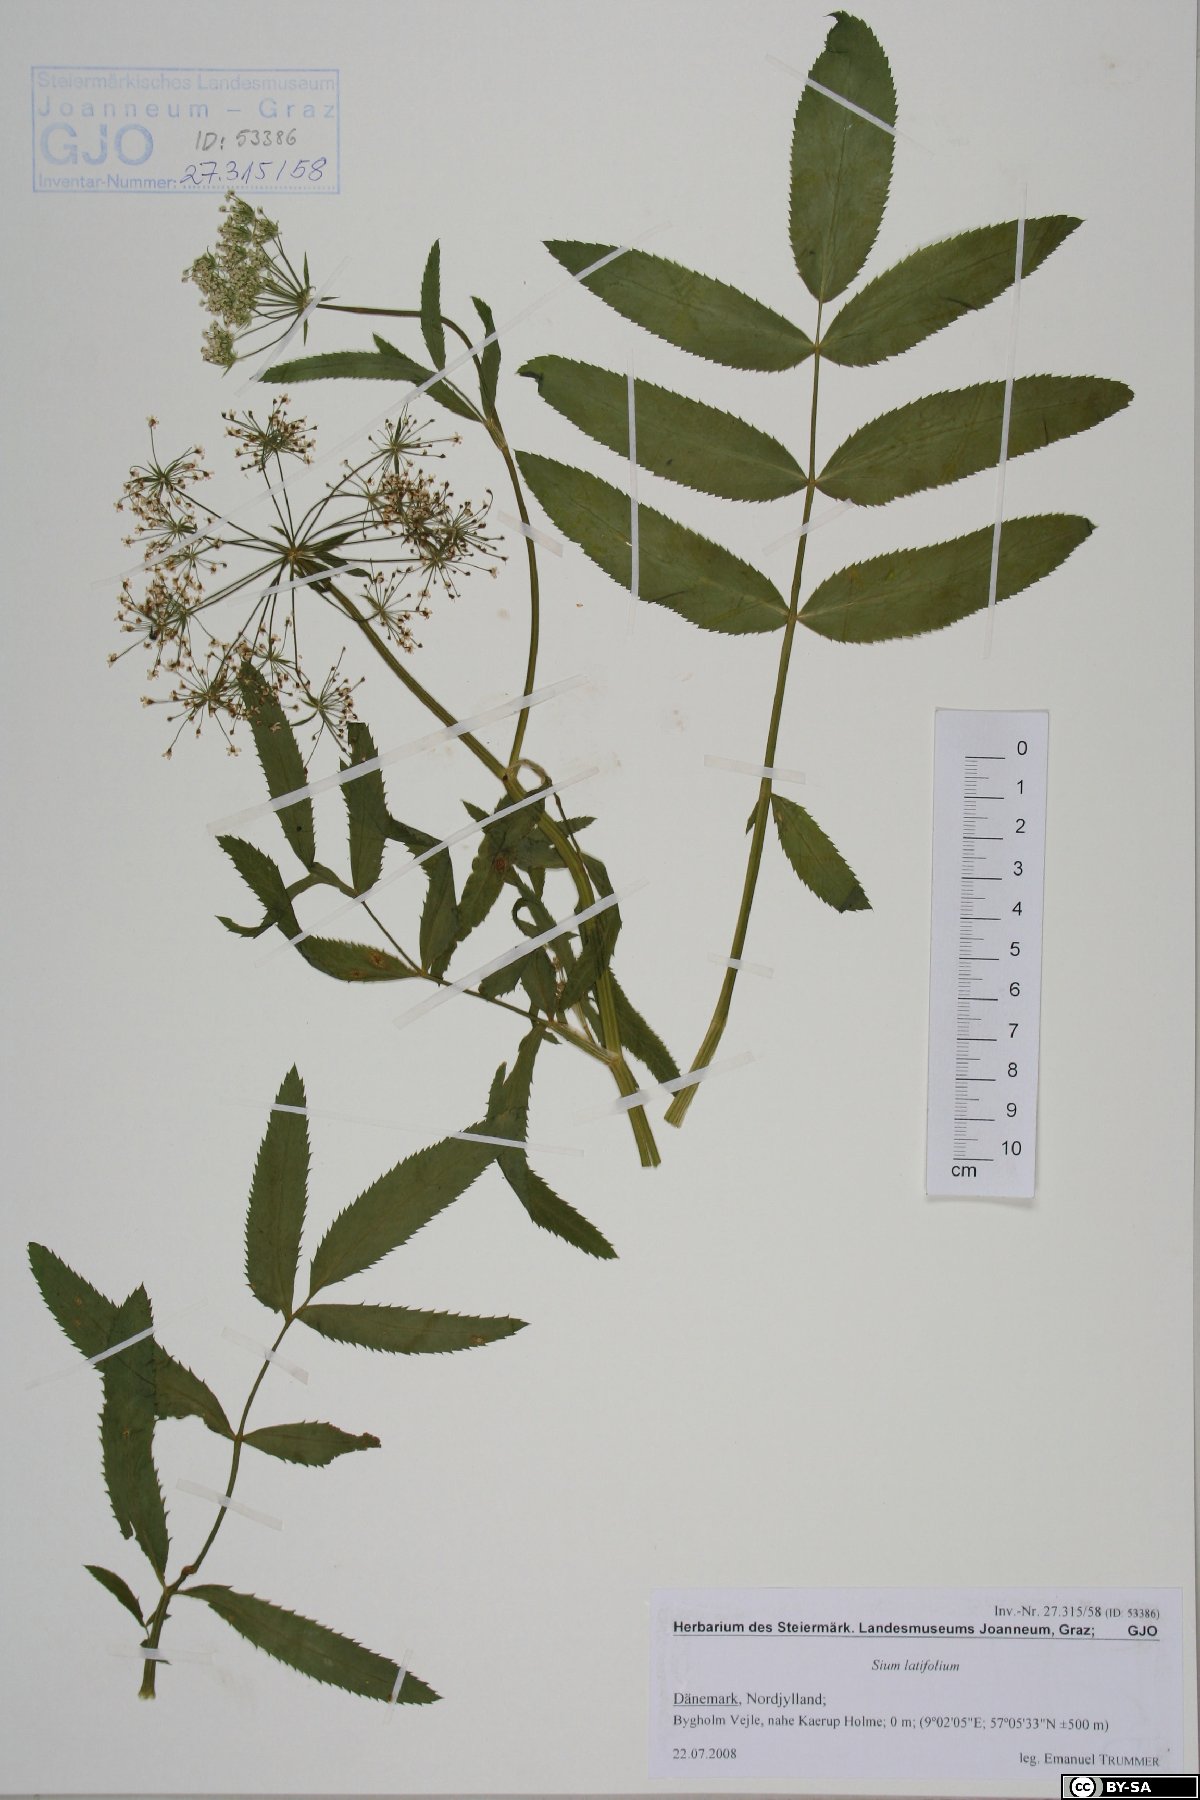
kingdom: Plantae
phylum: Tracheophyta
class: Magnoliopsida
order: Apiales
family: Apiaceae
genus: Sium
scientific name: Sium latifolium
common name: Greater water-parsnip
